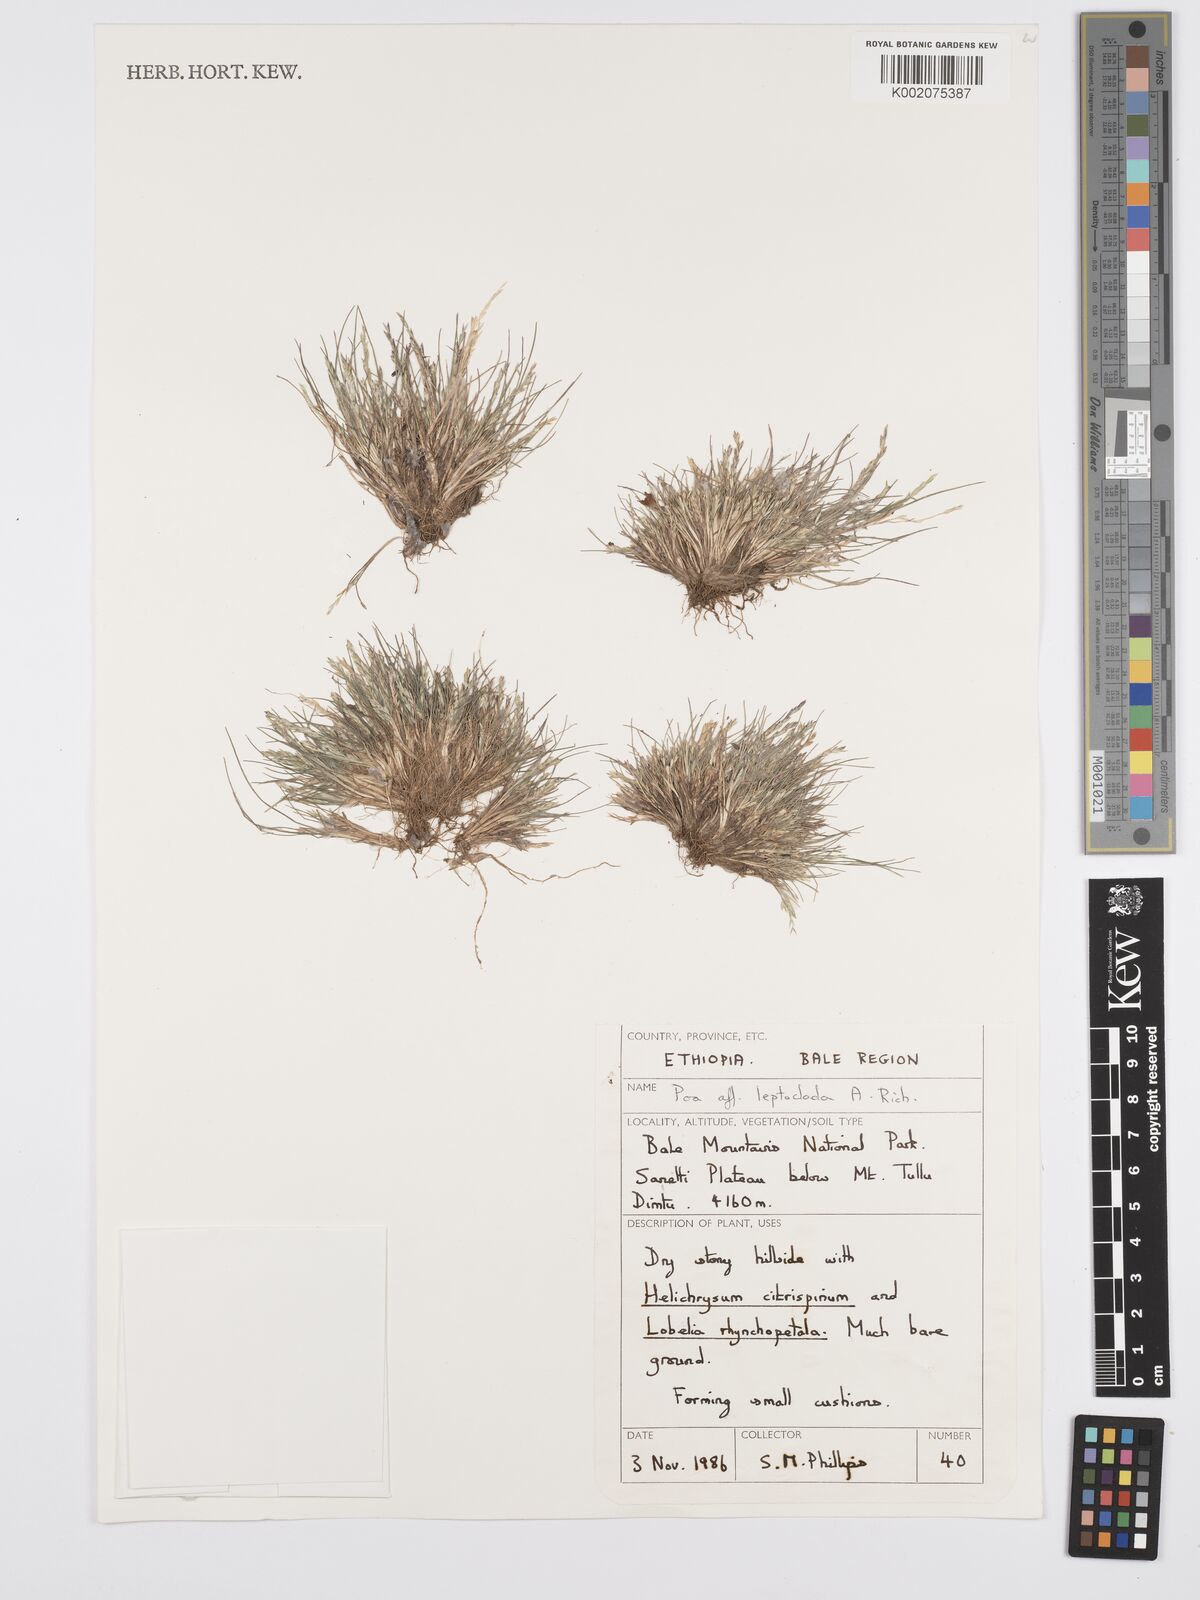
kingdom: Plantae
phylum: Tracheophyta
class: Liliopsida
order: Poales
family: Poaceae
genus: Poa
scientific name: Poa
